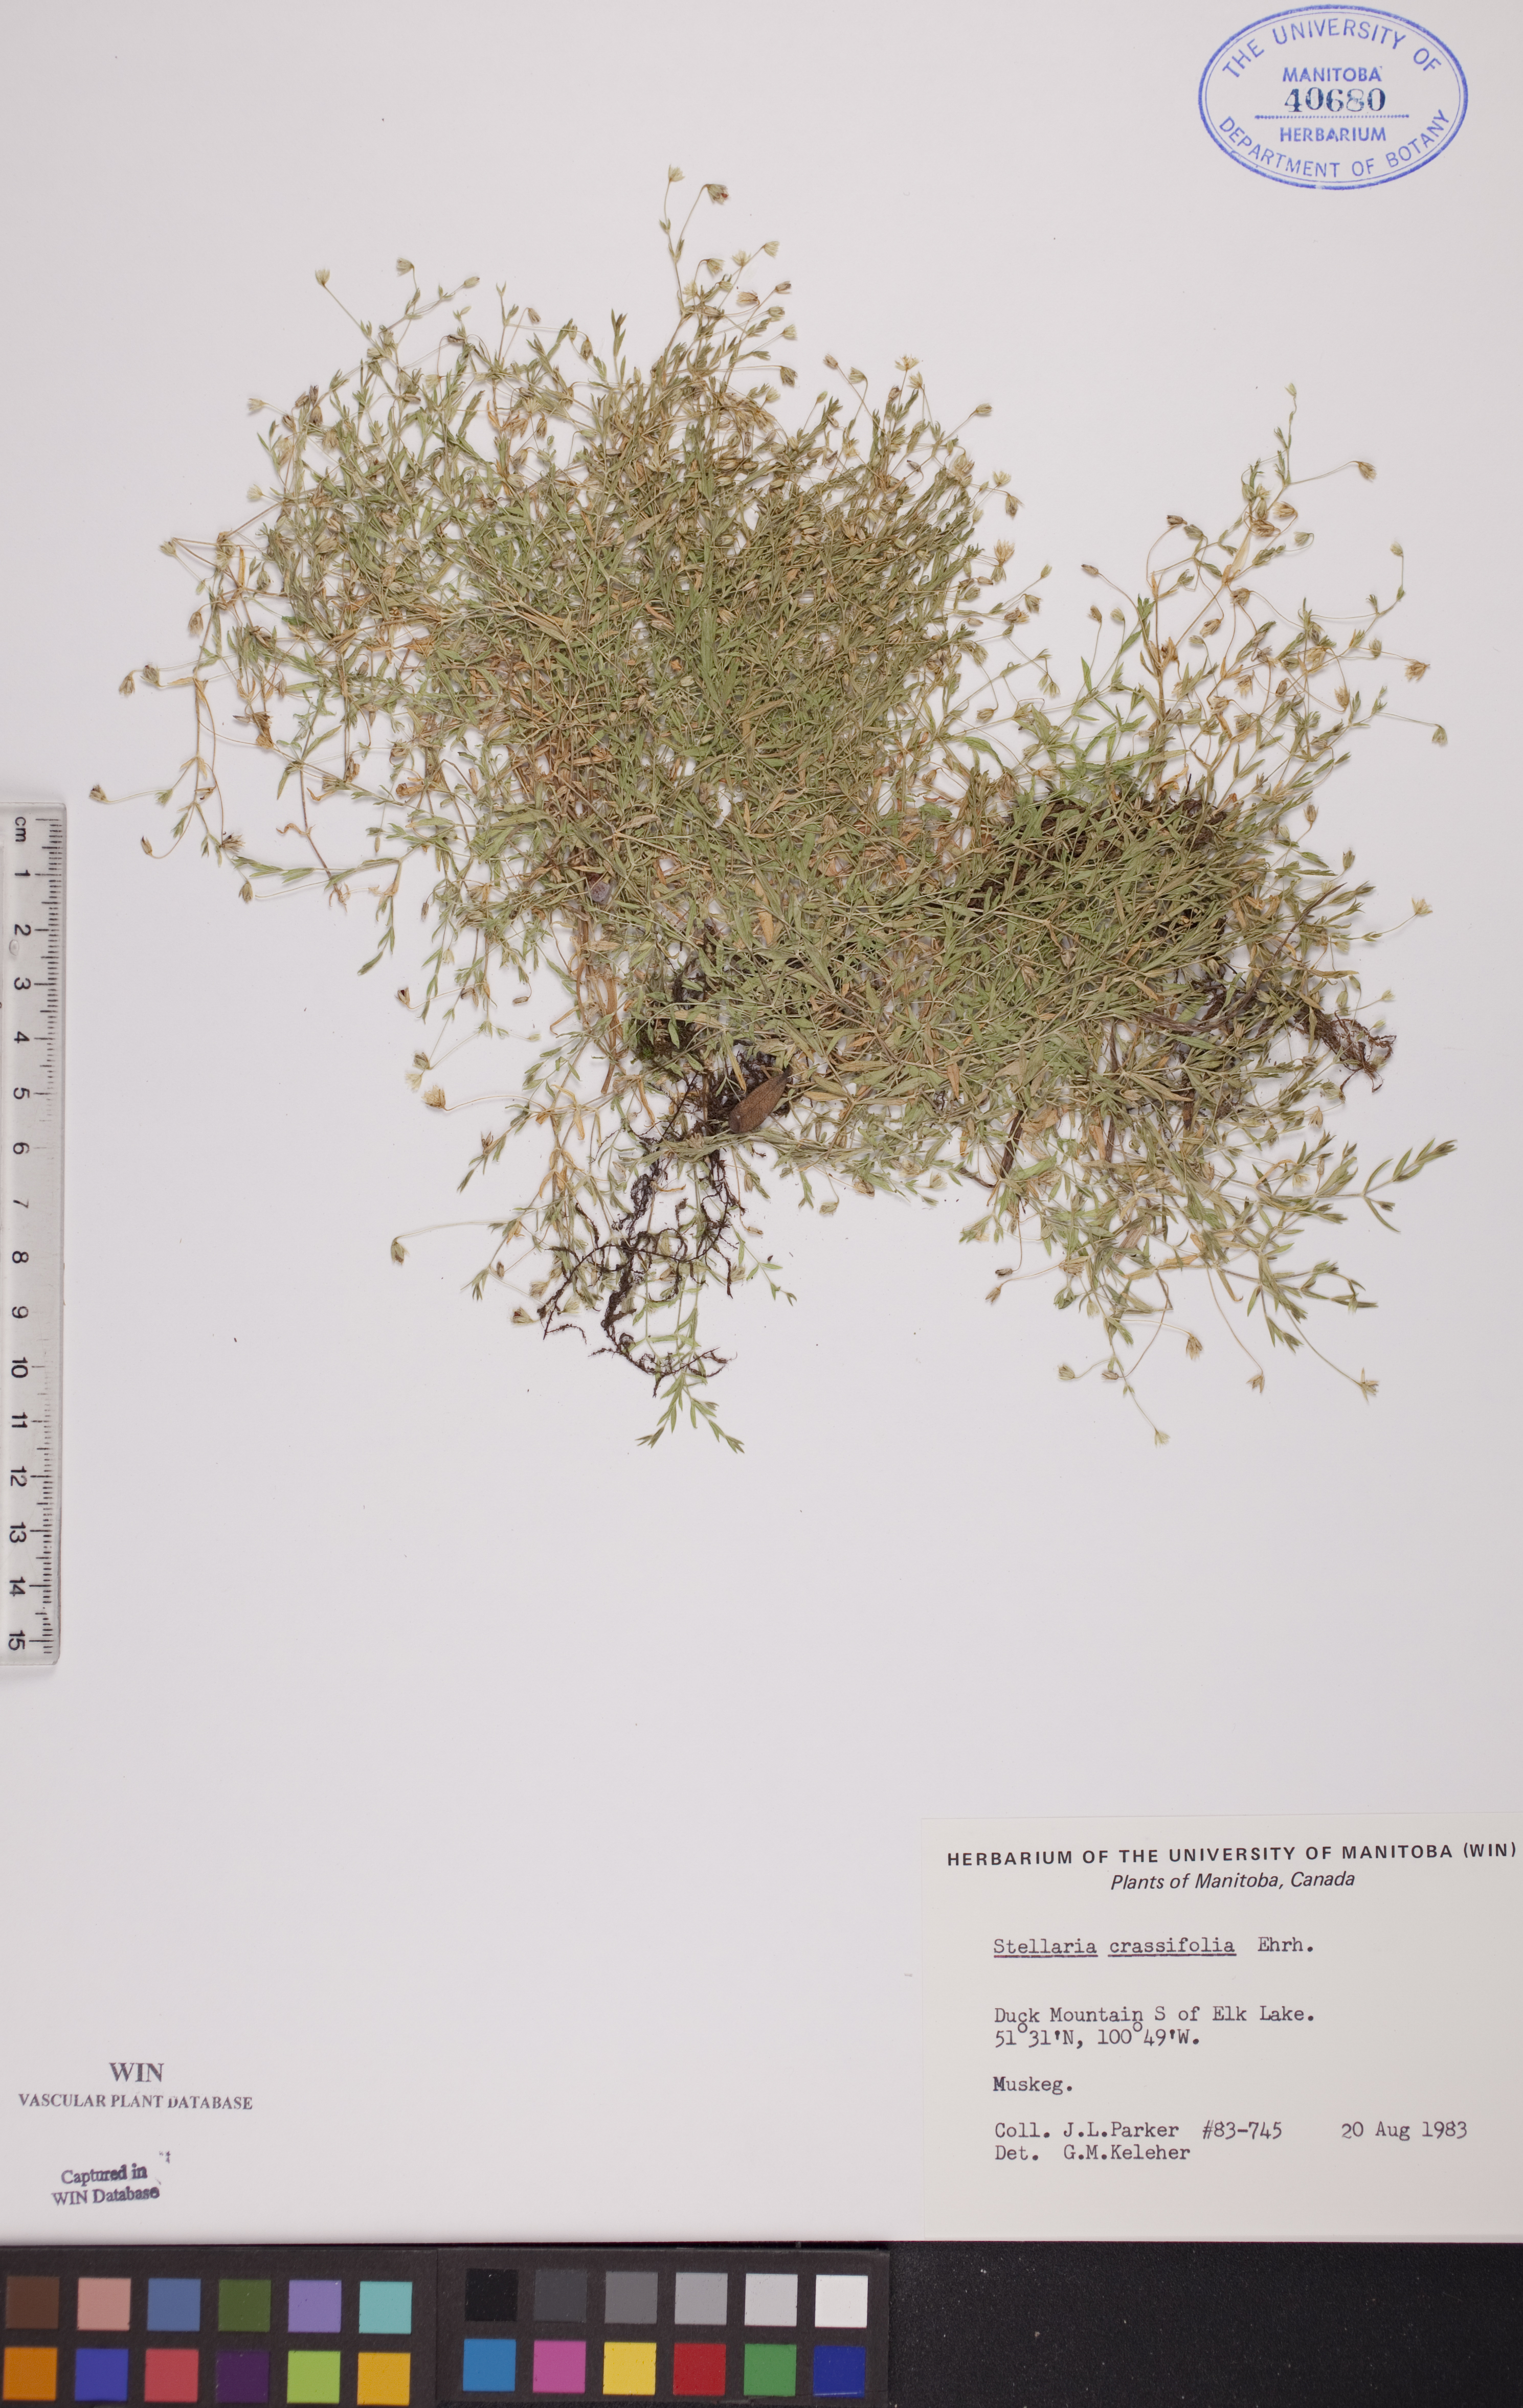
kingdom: Plantae
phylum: Tracheophyta
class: Magnoliopsida
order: Caryophyllales
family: Caryophyllaceae
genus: Stellaria
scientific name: Stellaria crassifolia
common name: Fleshy starwort
